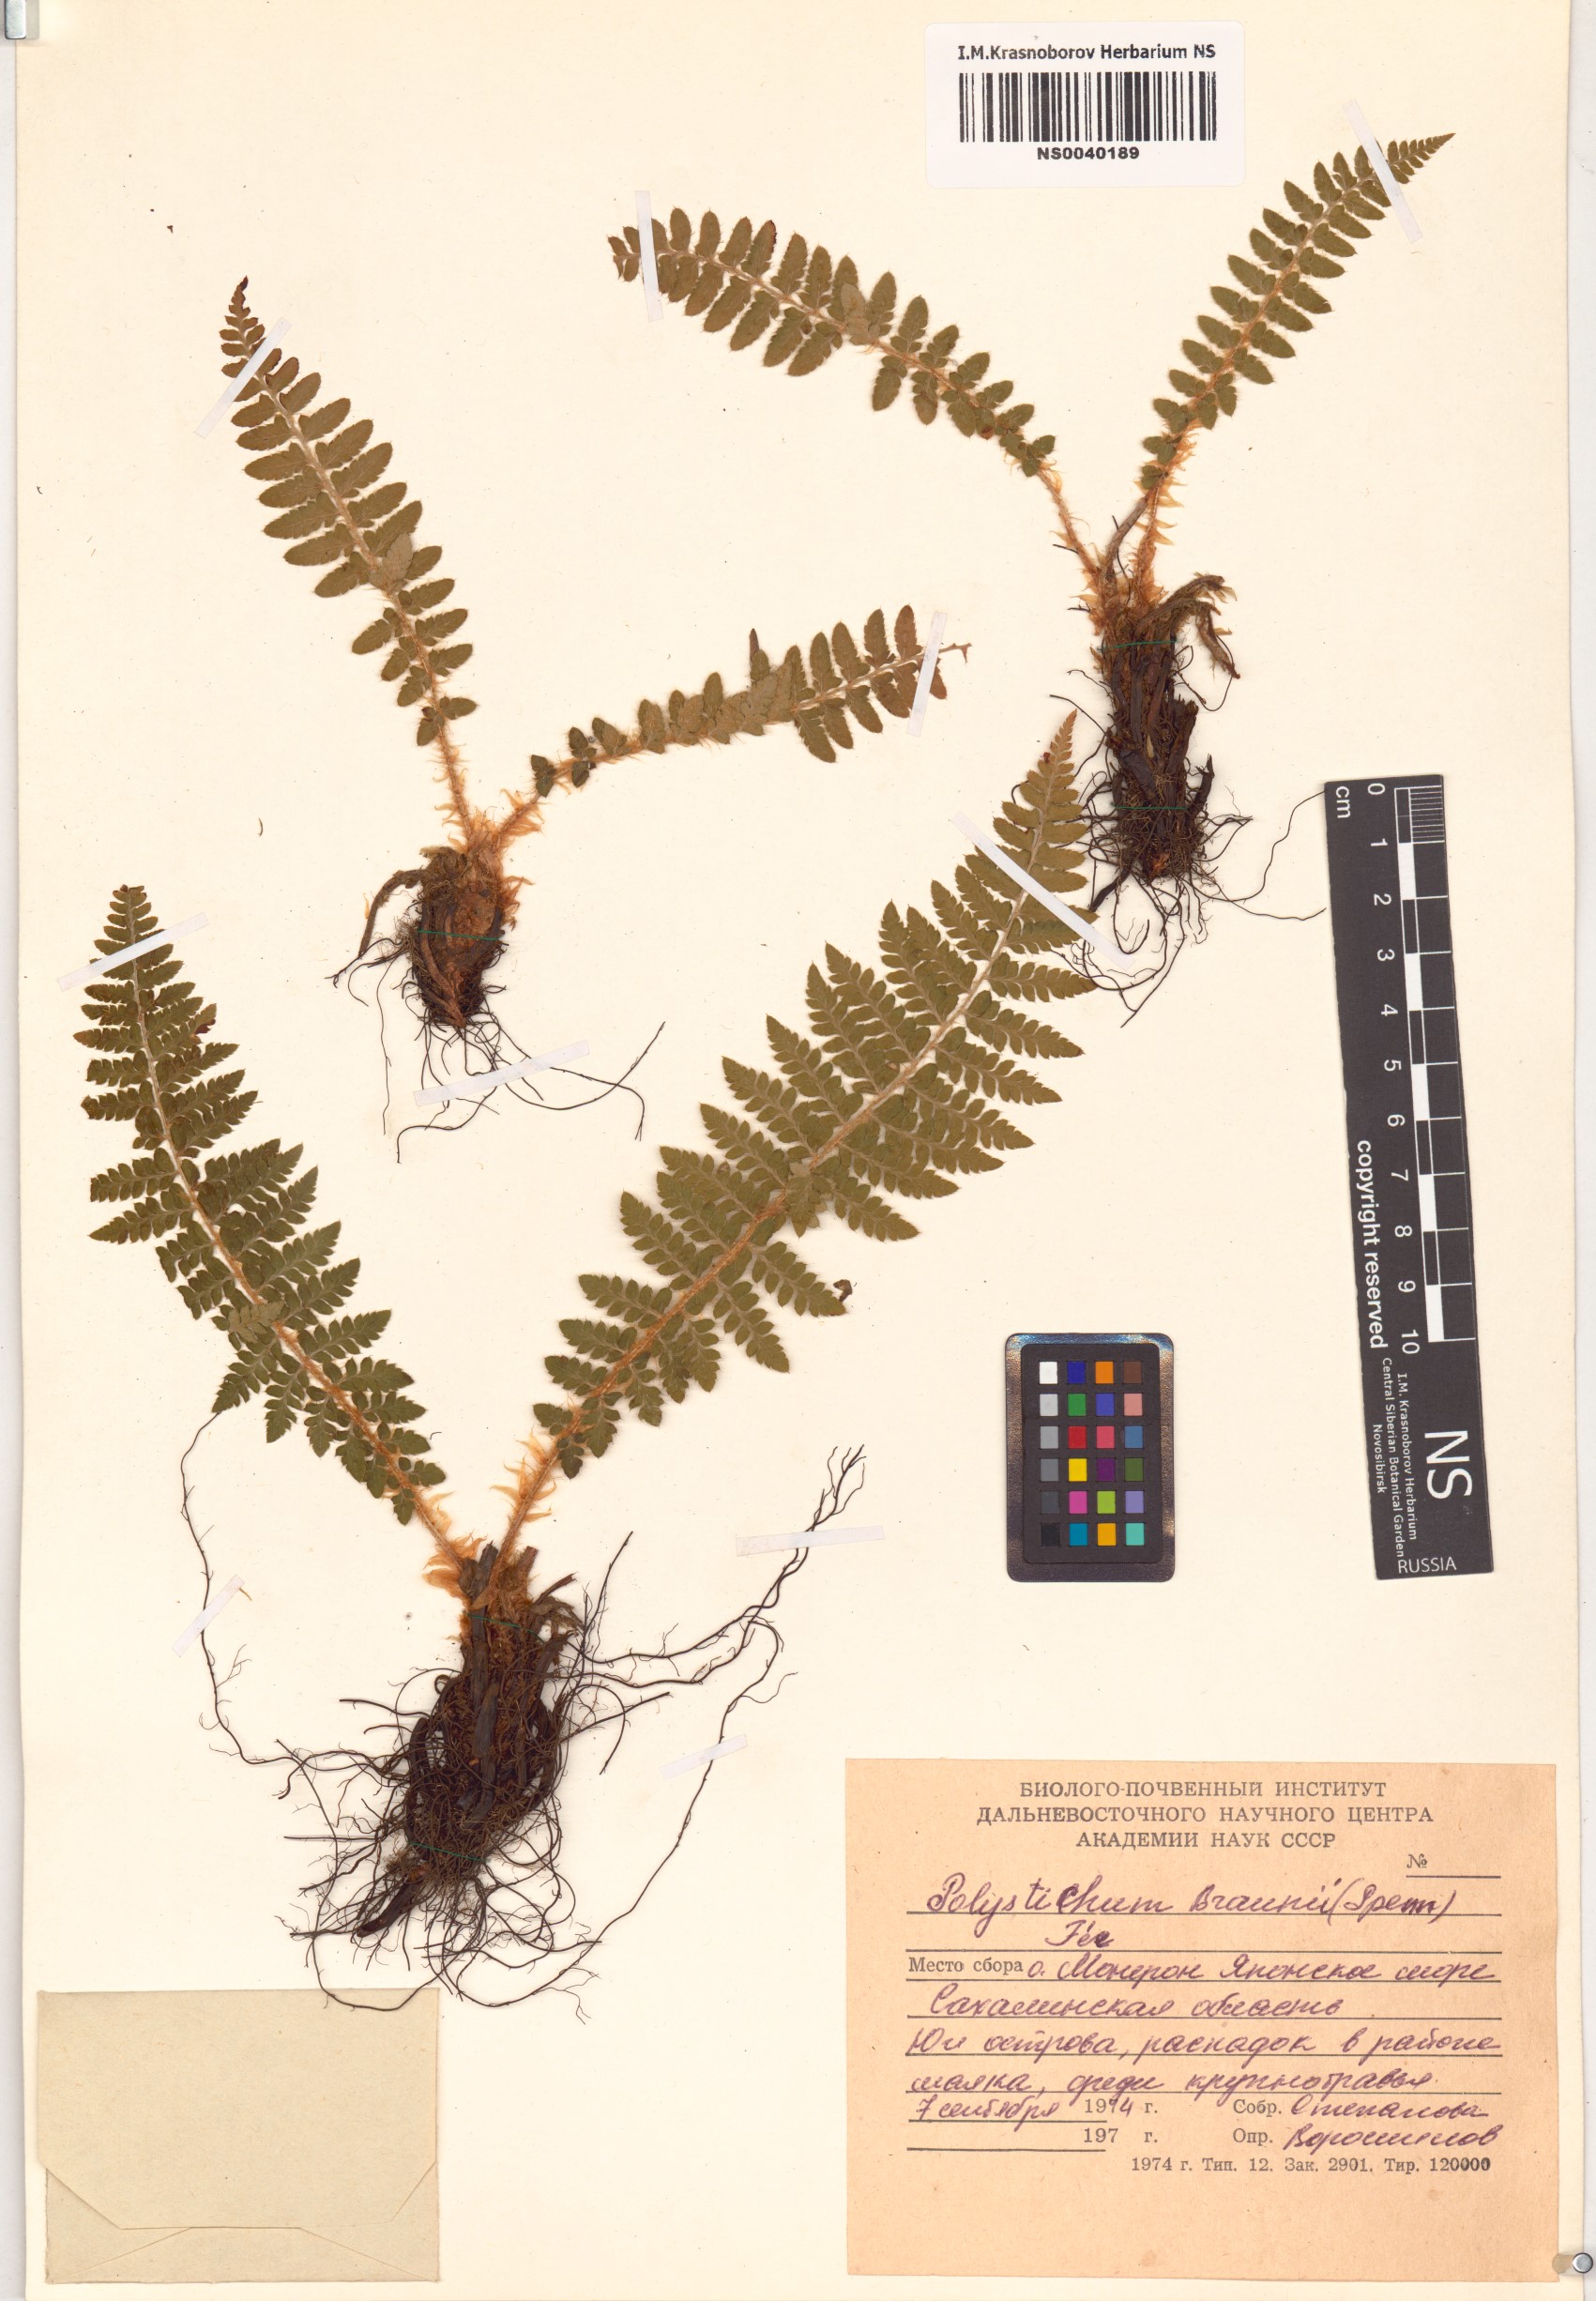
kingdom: Plantae
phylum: Tracheophyta
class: Polypodiopsida
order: Polypodiales
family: Dryopteridaceae
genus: Polystichum
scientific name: Polystichum braunii
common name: Braun's holly fern
